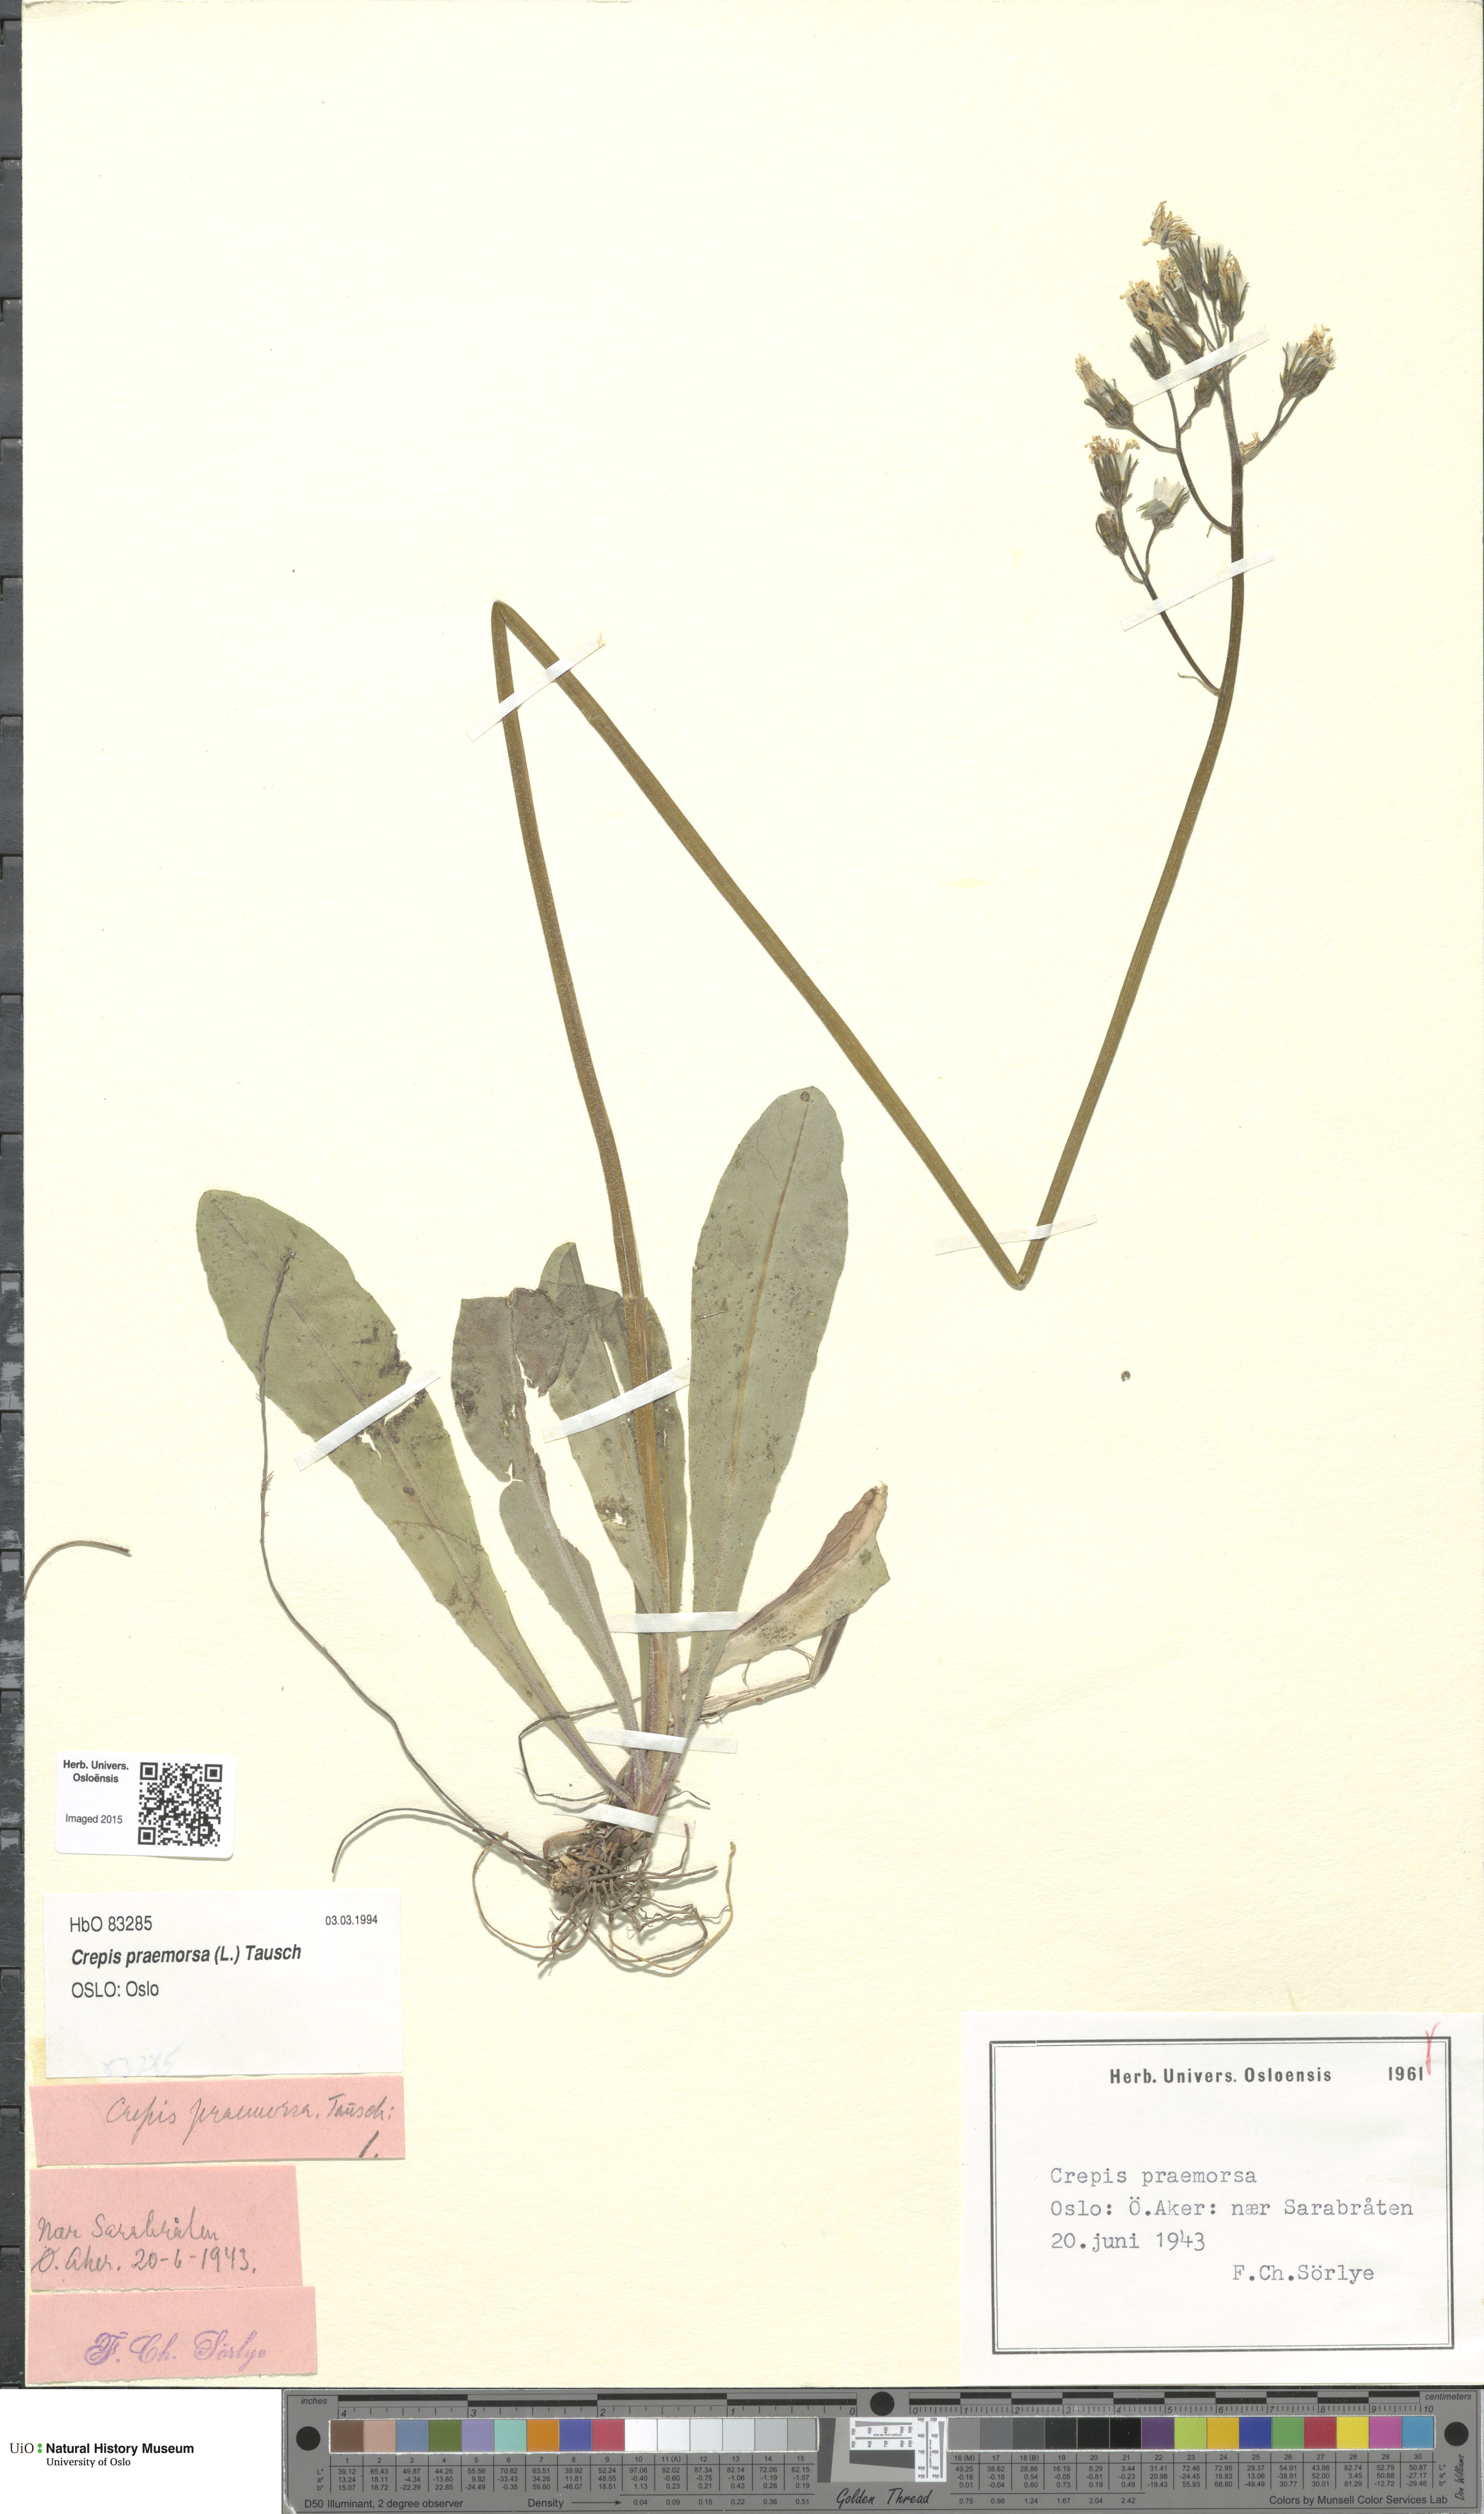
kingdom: Plantae
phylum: Tracheophyta
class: Magnoliopsida
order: Asterales
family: Asteraceae
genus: Crepis
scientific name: Crepis praemorsa
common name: Leafless hawk's-beard
